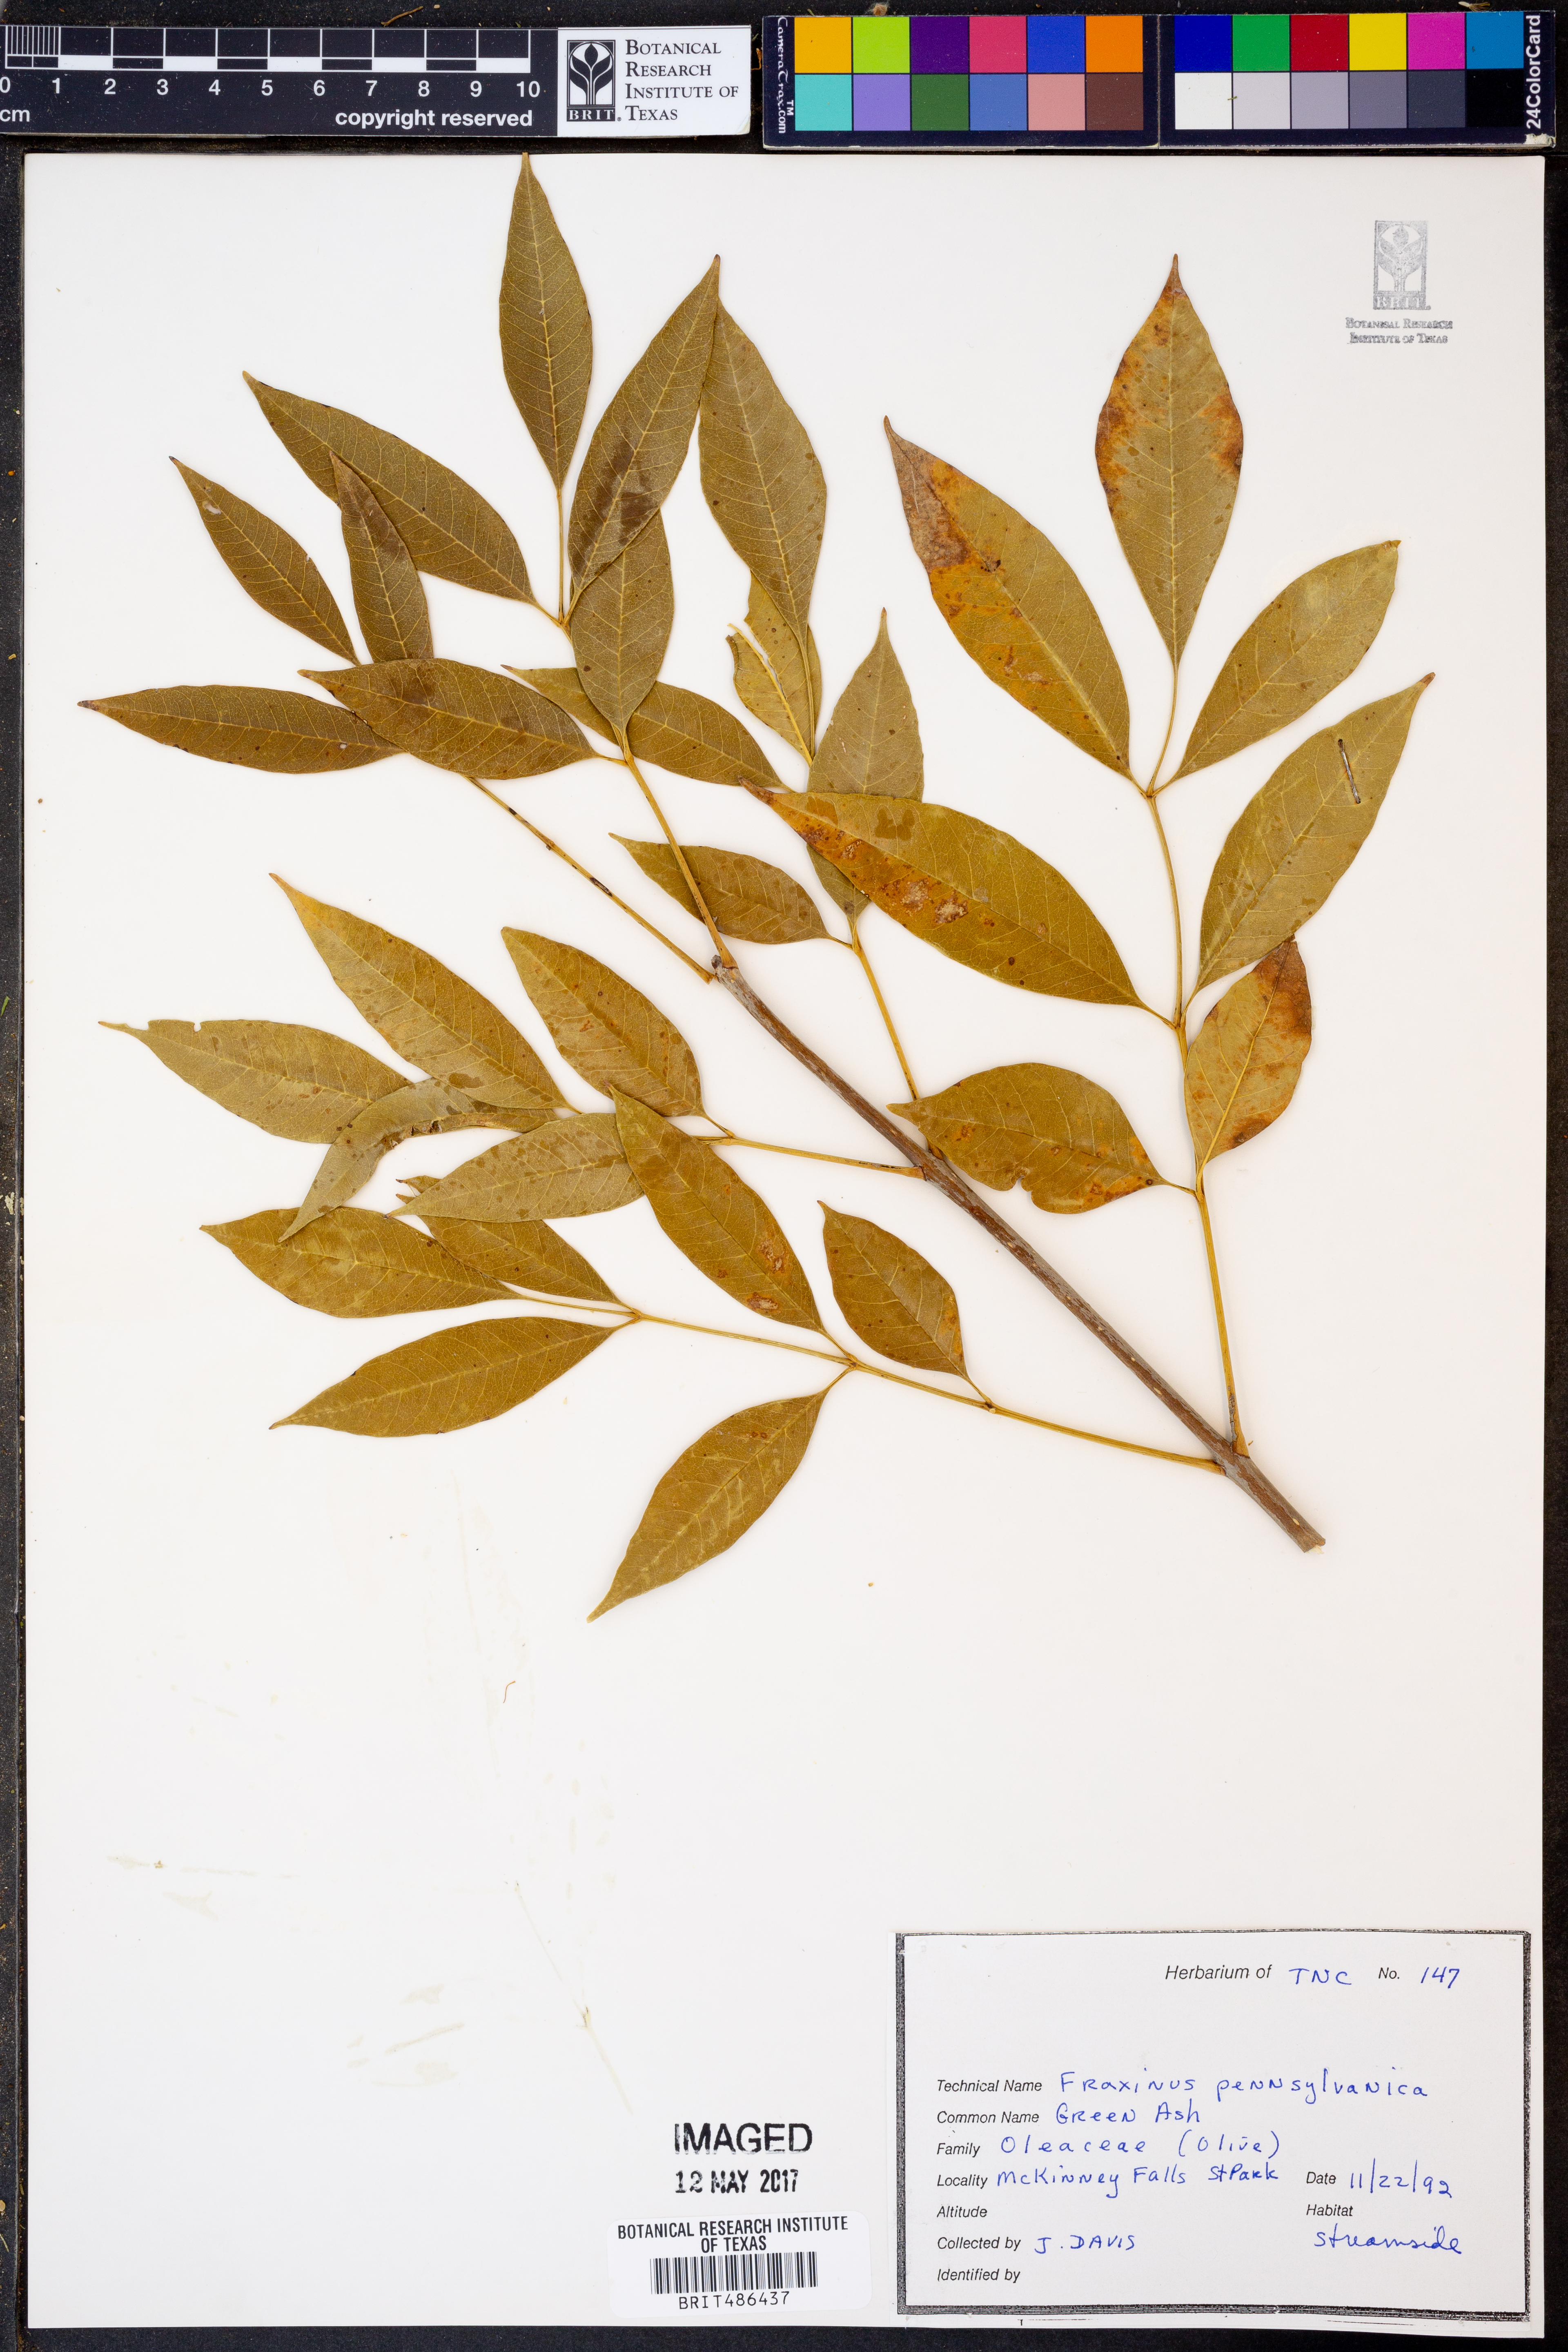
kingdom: Plantae
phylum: Tracheophyta
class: Magnoliopsida
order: Lamiales
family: Oleaceae
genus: Fraxinus
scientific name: Fraxinus pennsylvanica
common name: Green ash
